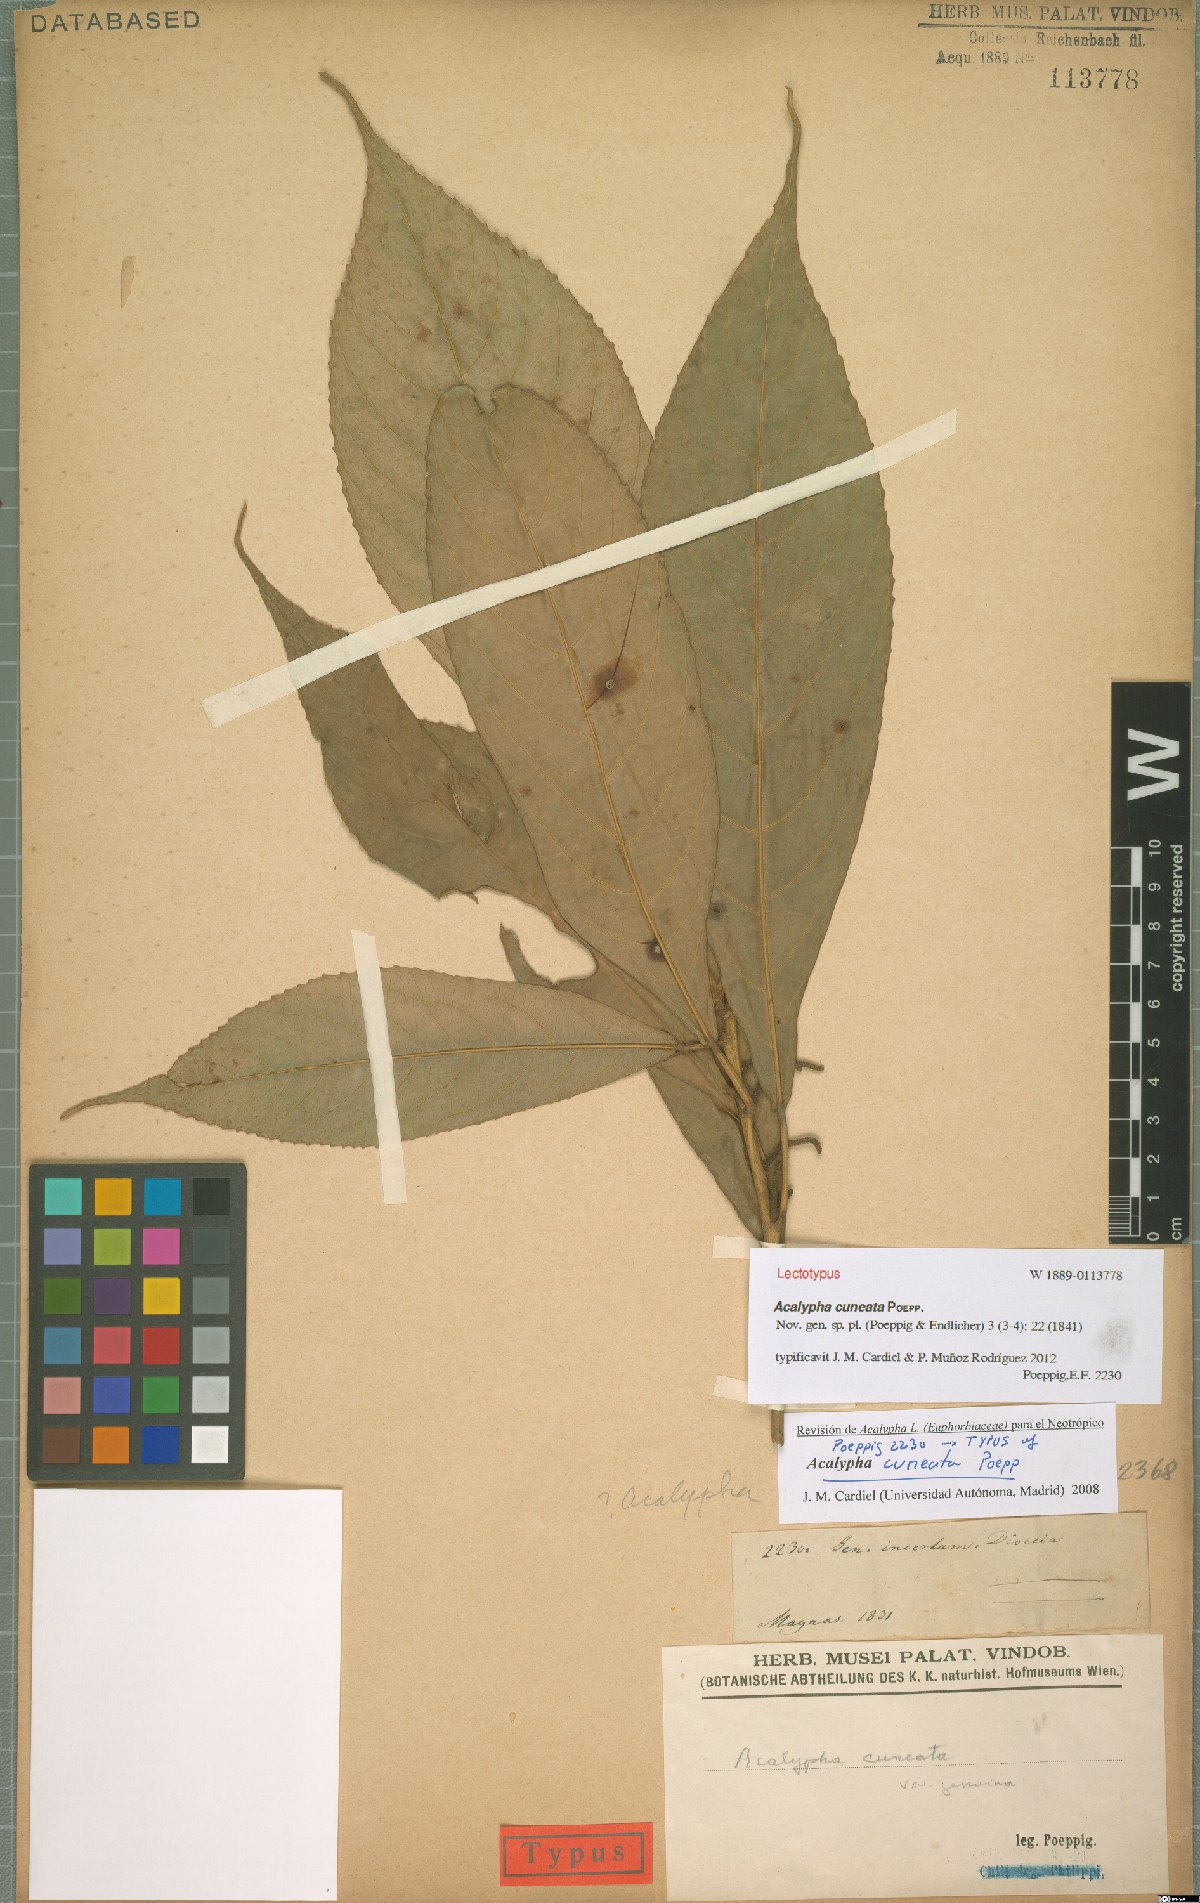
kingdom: Plantae
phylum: Tracheophyta
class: Magnoliopsida
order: Malpighiales
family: Euphorbiaceae
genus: Acalypha
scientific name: Acalypha cuneata
